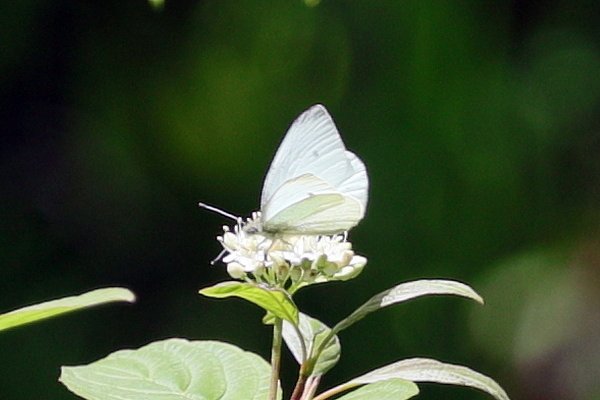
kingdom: Animalia
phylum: Arthropoda
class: Insecta
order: Lepidoptera
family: Pieridae
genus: Pieris
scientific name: Pieris rapae
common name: Cabbage White
